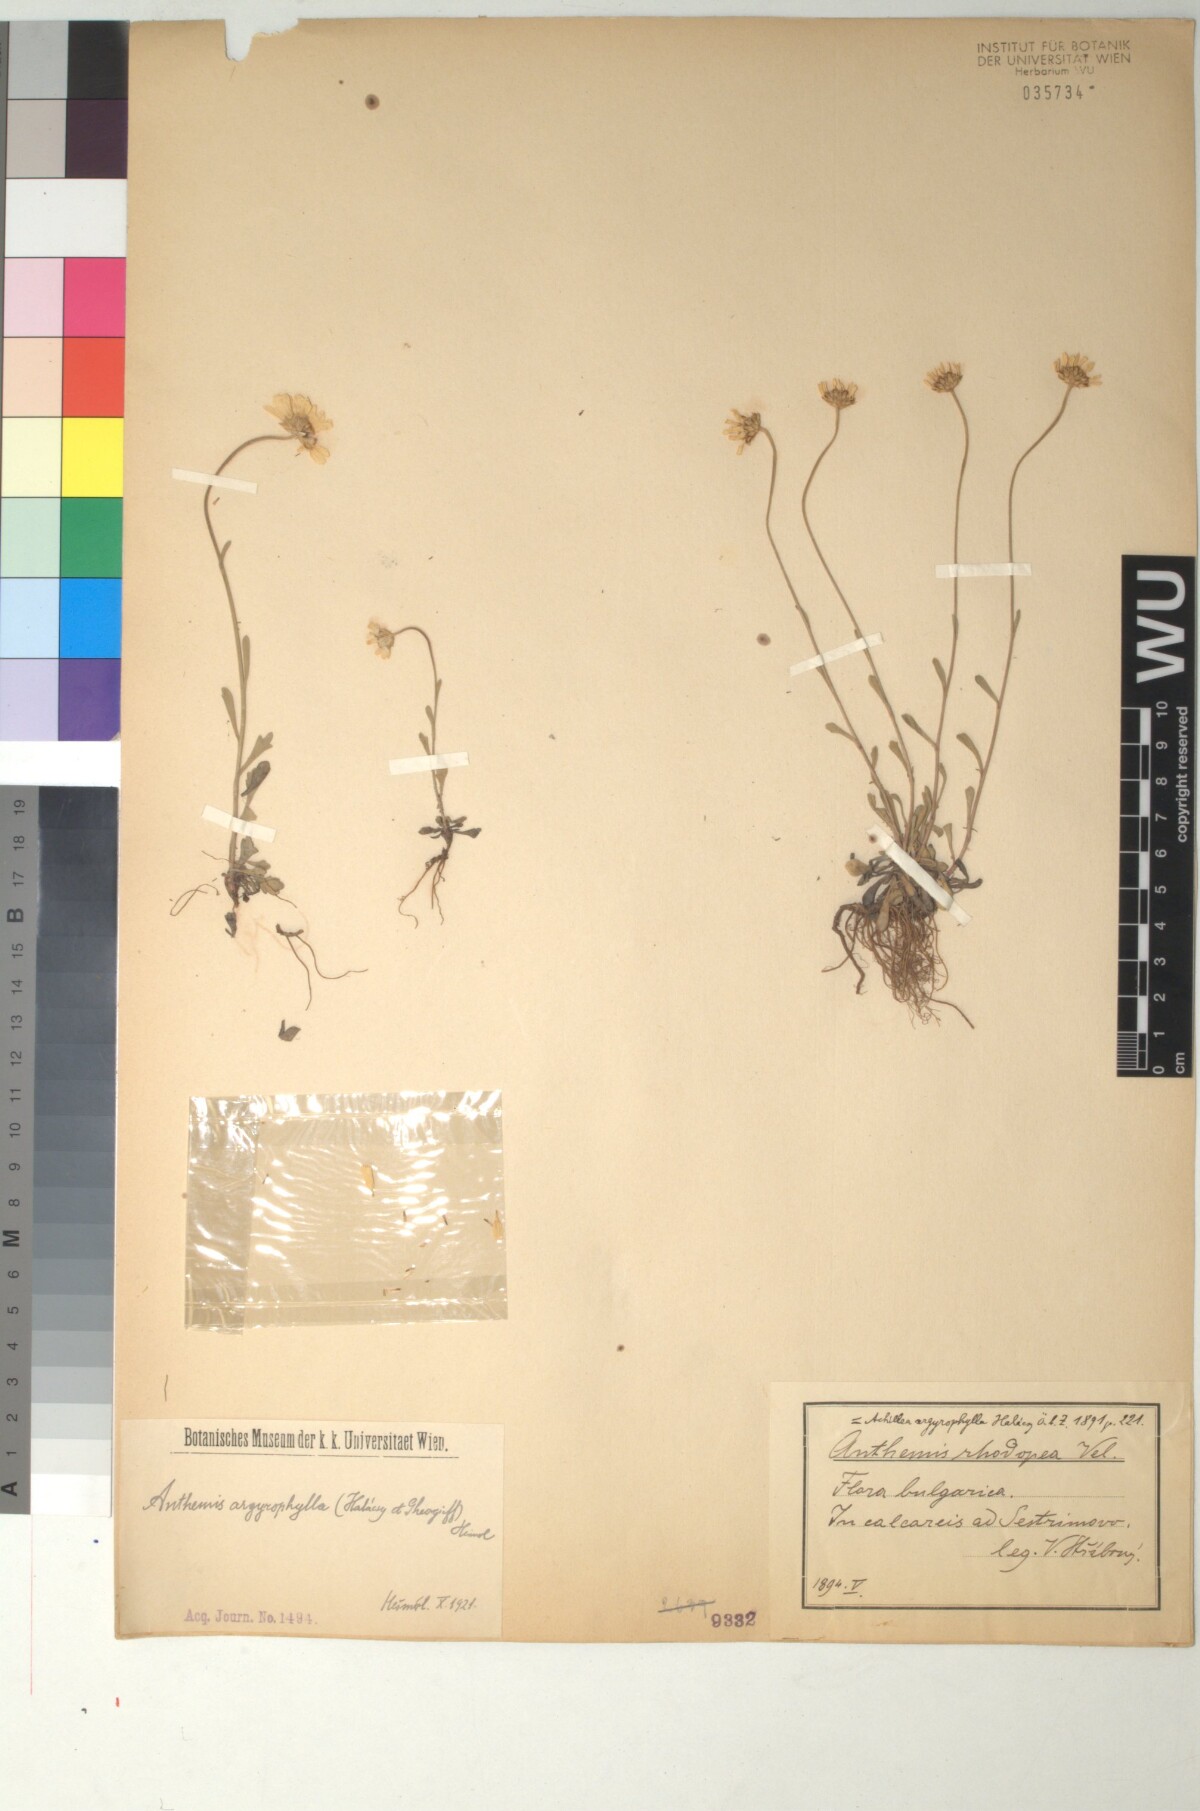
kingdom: Plantae
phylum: Tracheophyta
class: Magnoliopsida
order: Asterales
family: Asteraceae
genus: Anthemis
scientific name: Anthemis argyrophylla
